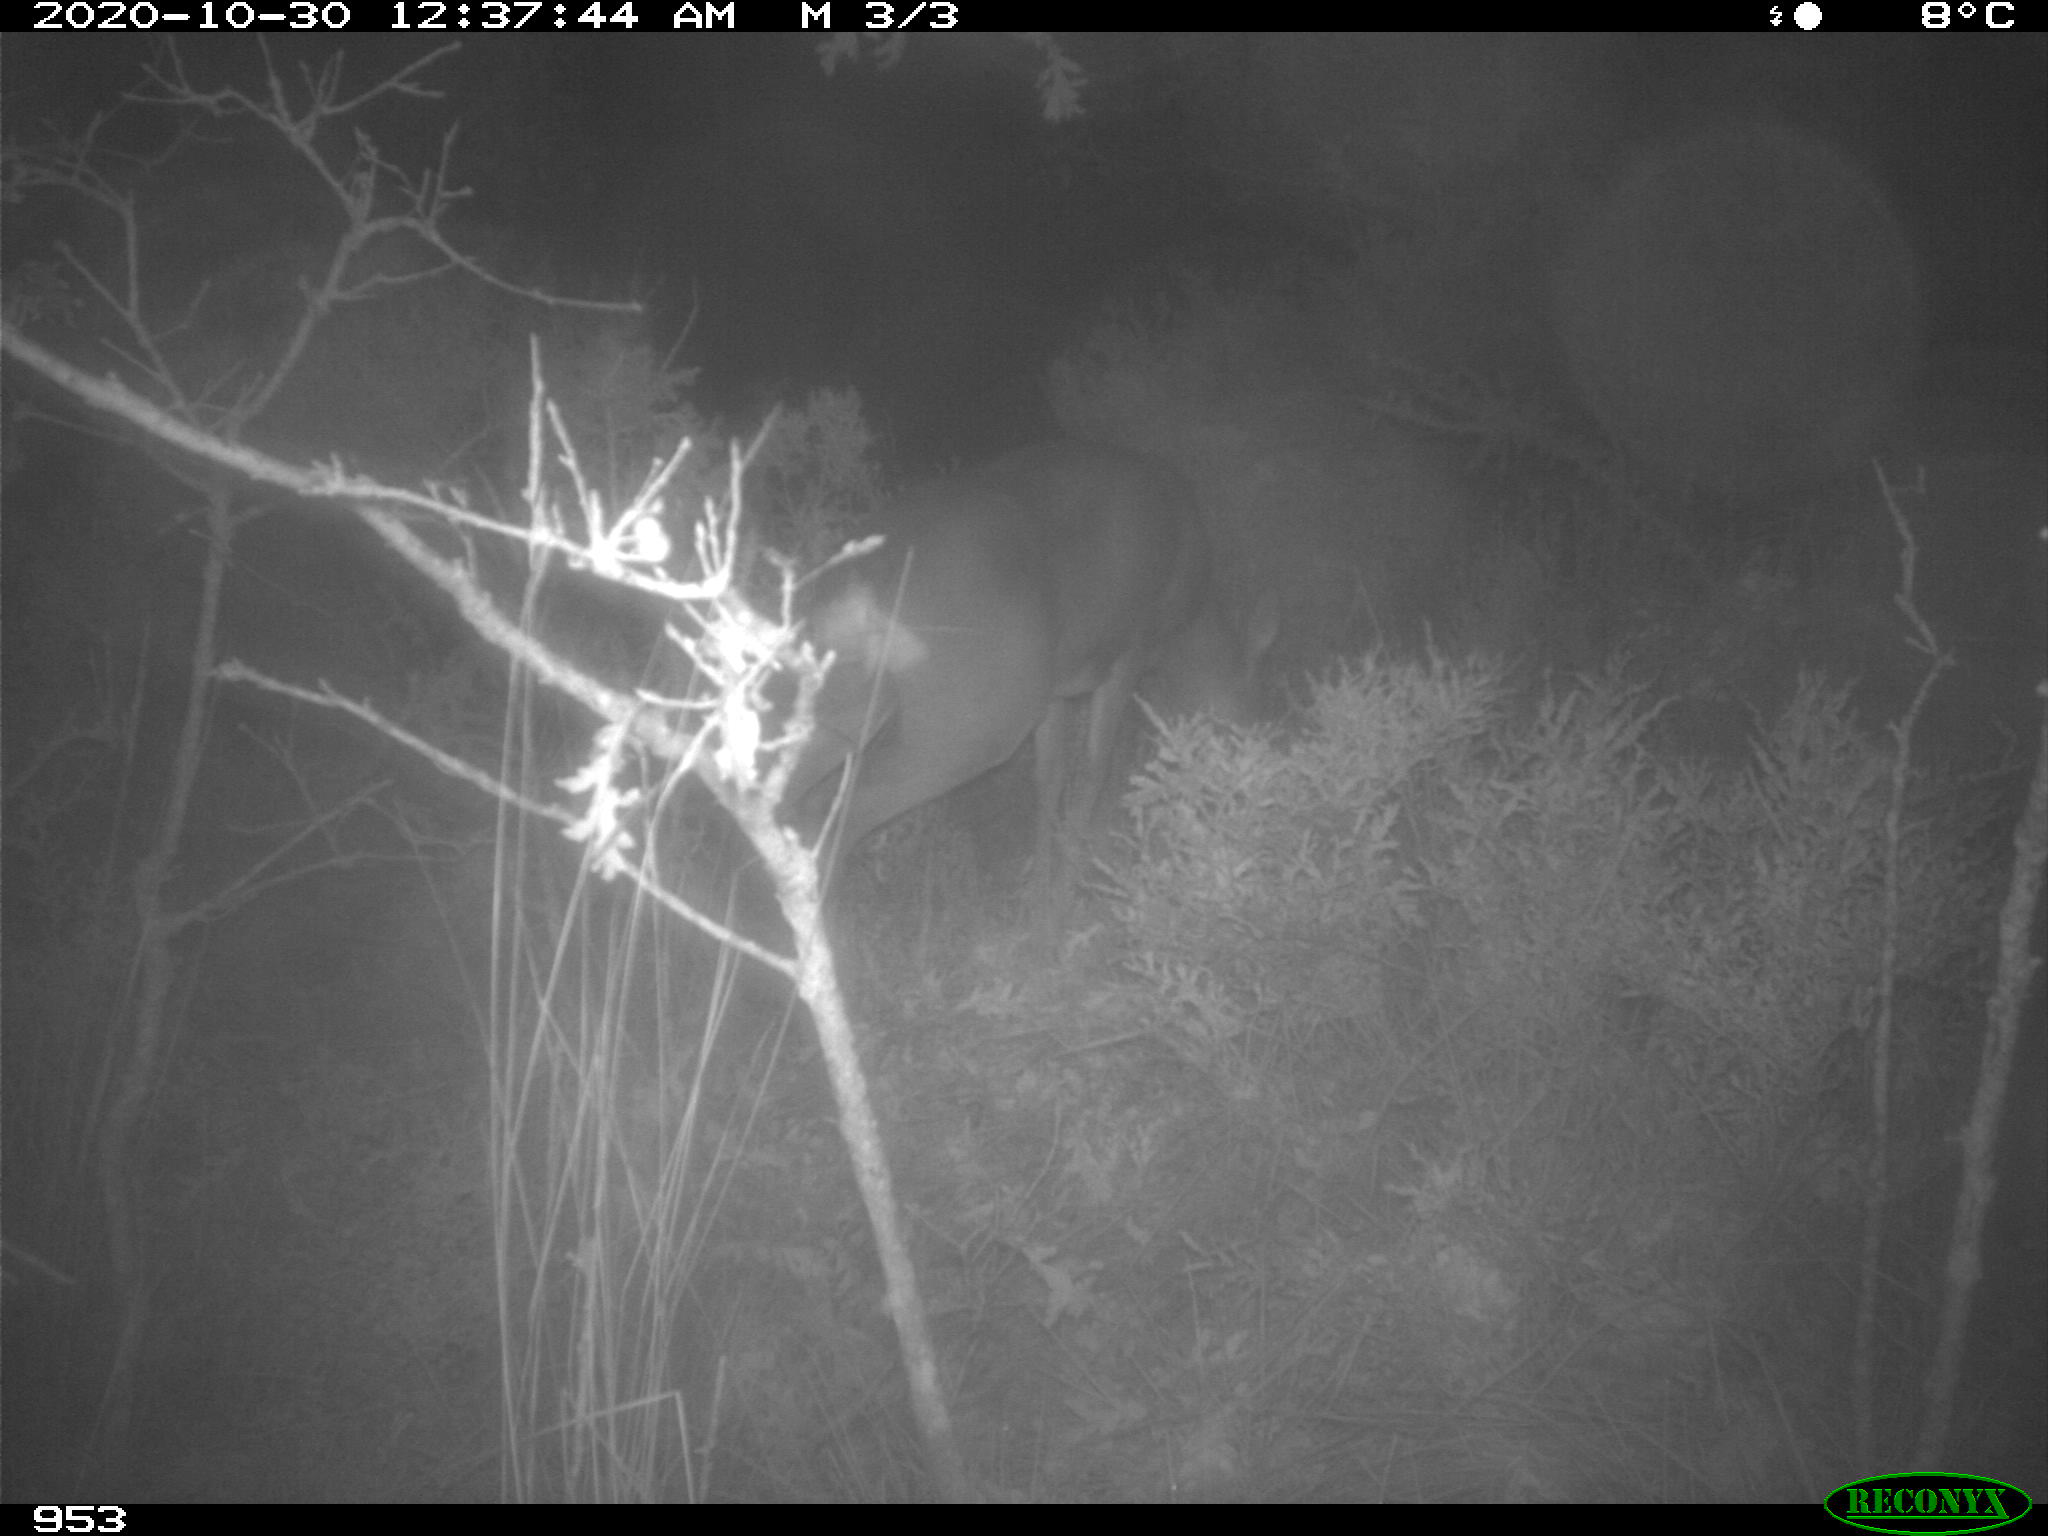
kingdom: Animalia
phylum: Chordata
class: Mammalia
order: Artiodactyla
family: Cervidae
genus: Capreolus
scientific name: Capreolus capreolus
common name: Western roe deer
